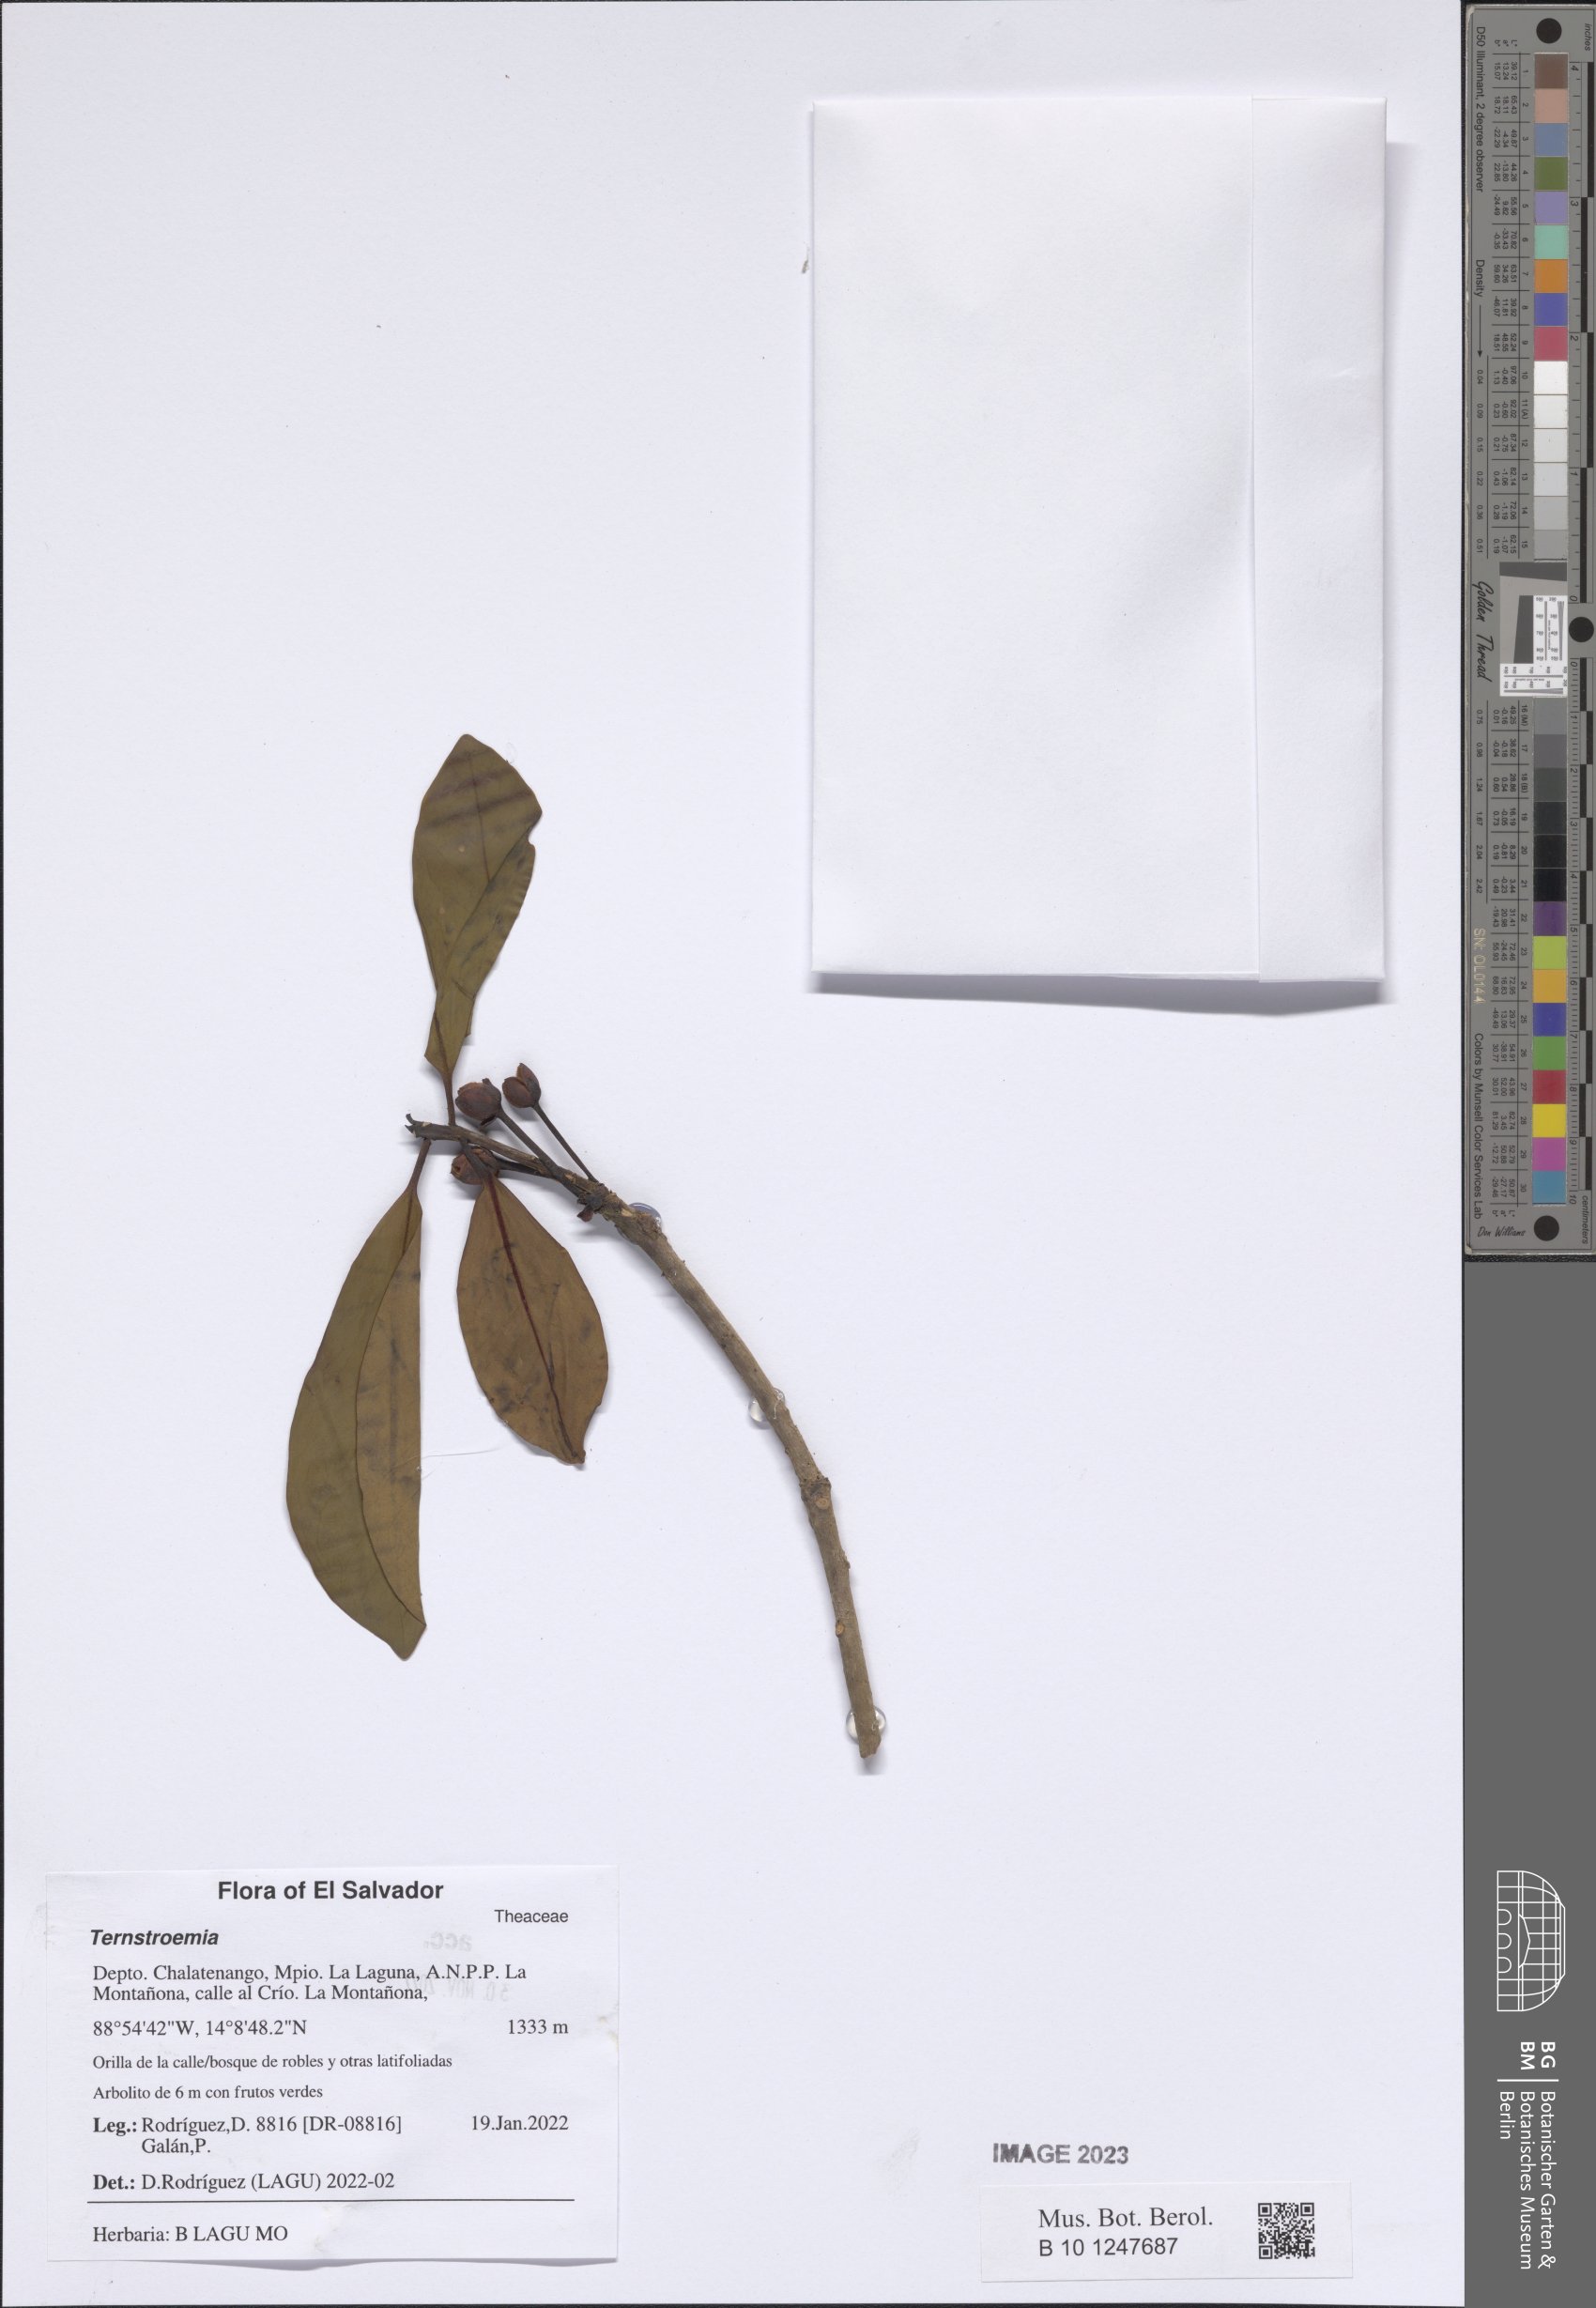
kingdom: Plantae
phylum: Tracheophyta
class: Magnoliopsida
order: Ericales
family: Pentaphylacaceae
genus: Ternstroemia
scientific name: Ternstroemia
